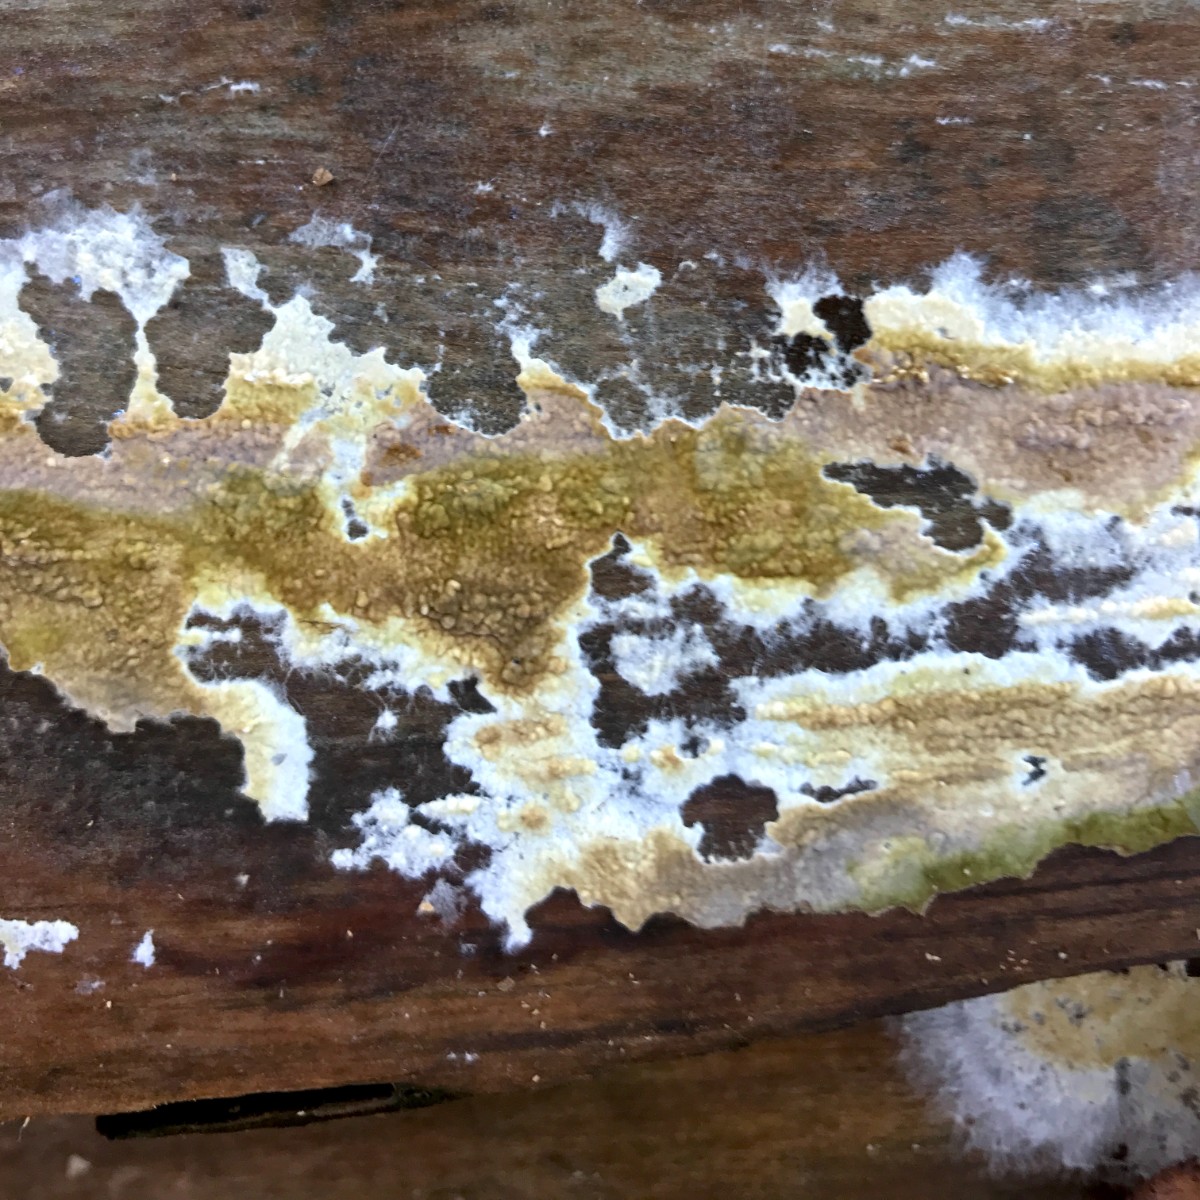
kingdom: Fungi
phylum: Basidiomycota
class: Agaricomycetes
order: Boletales
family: Coniophoraceae
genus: Coniophora
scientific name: Coniophora puteana
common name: gul tømmersvamp
